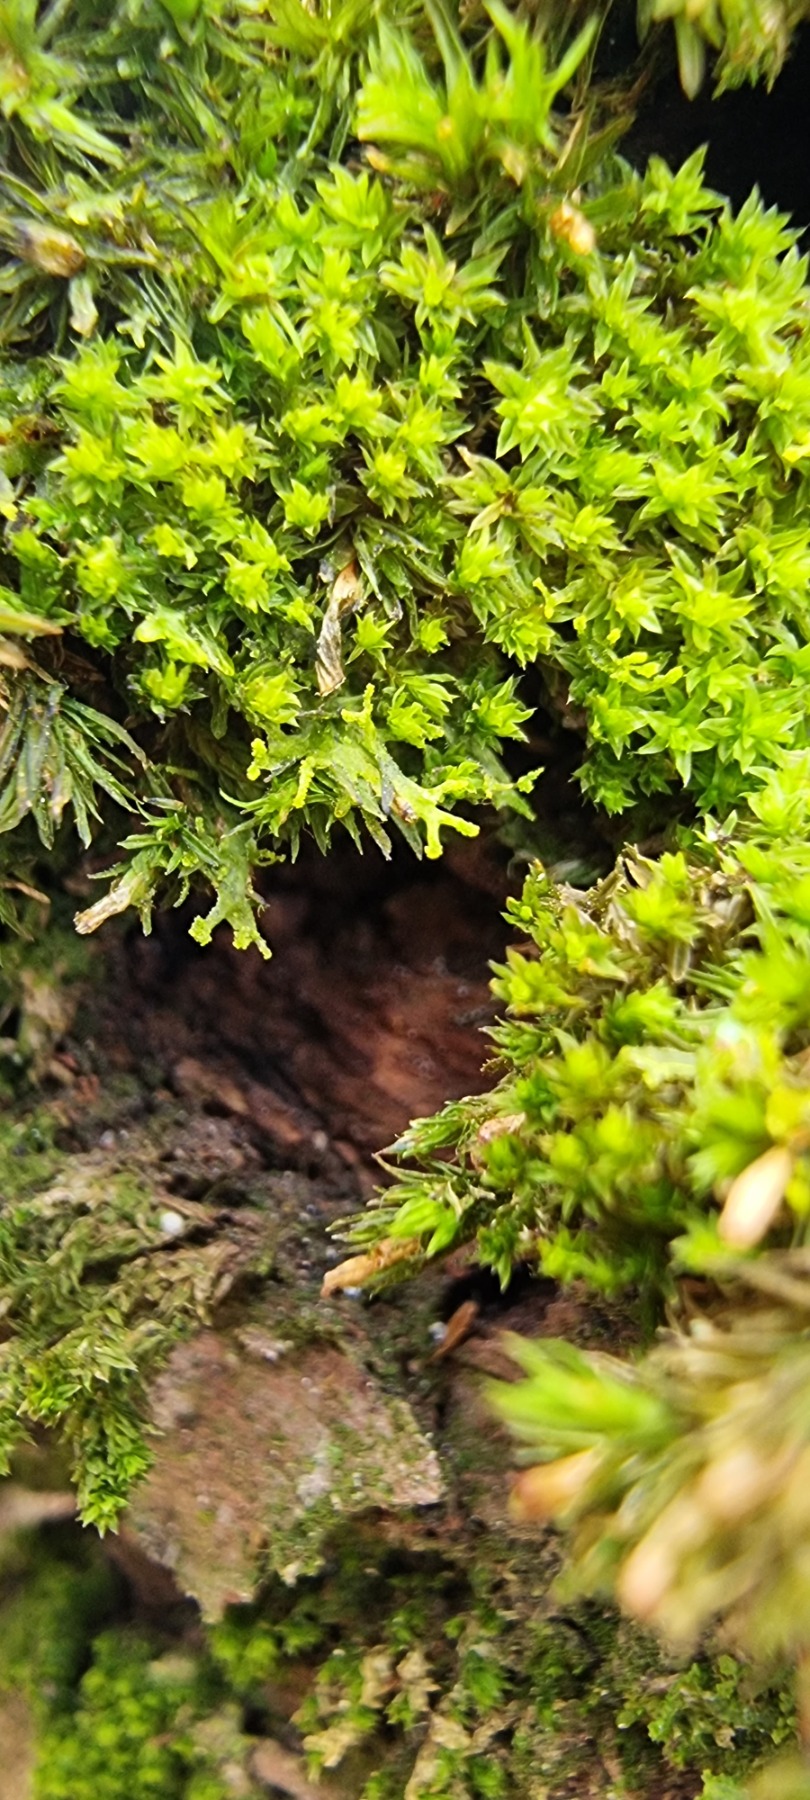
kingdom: Plantae
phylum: Marchantiophyta
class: Jungermanniopsida
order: Metzgeriales
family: Aneuraceae
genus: Riccardia
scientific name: Riccardia palmata
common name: Blågrøn gaffelløv
